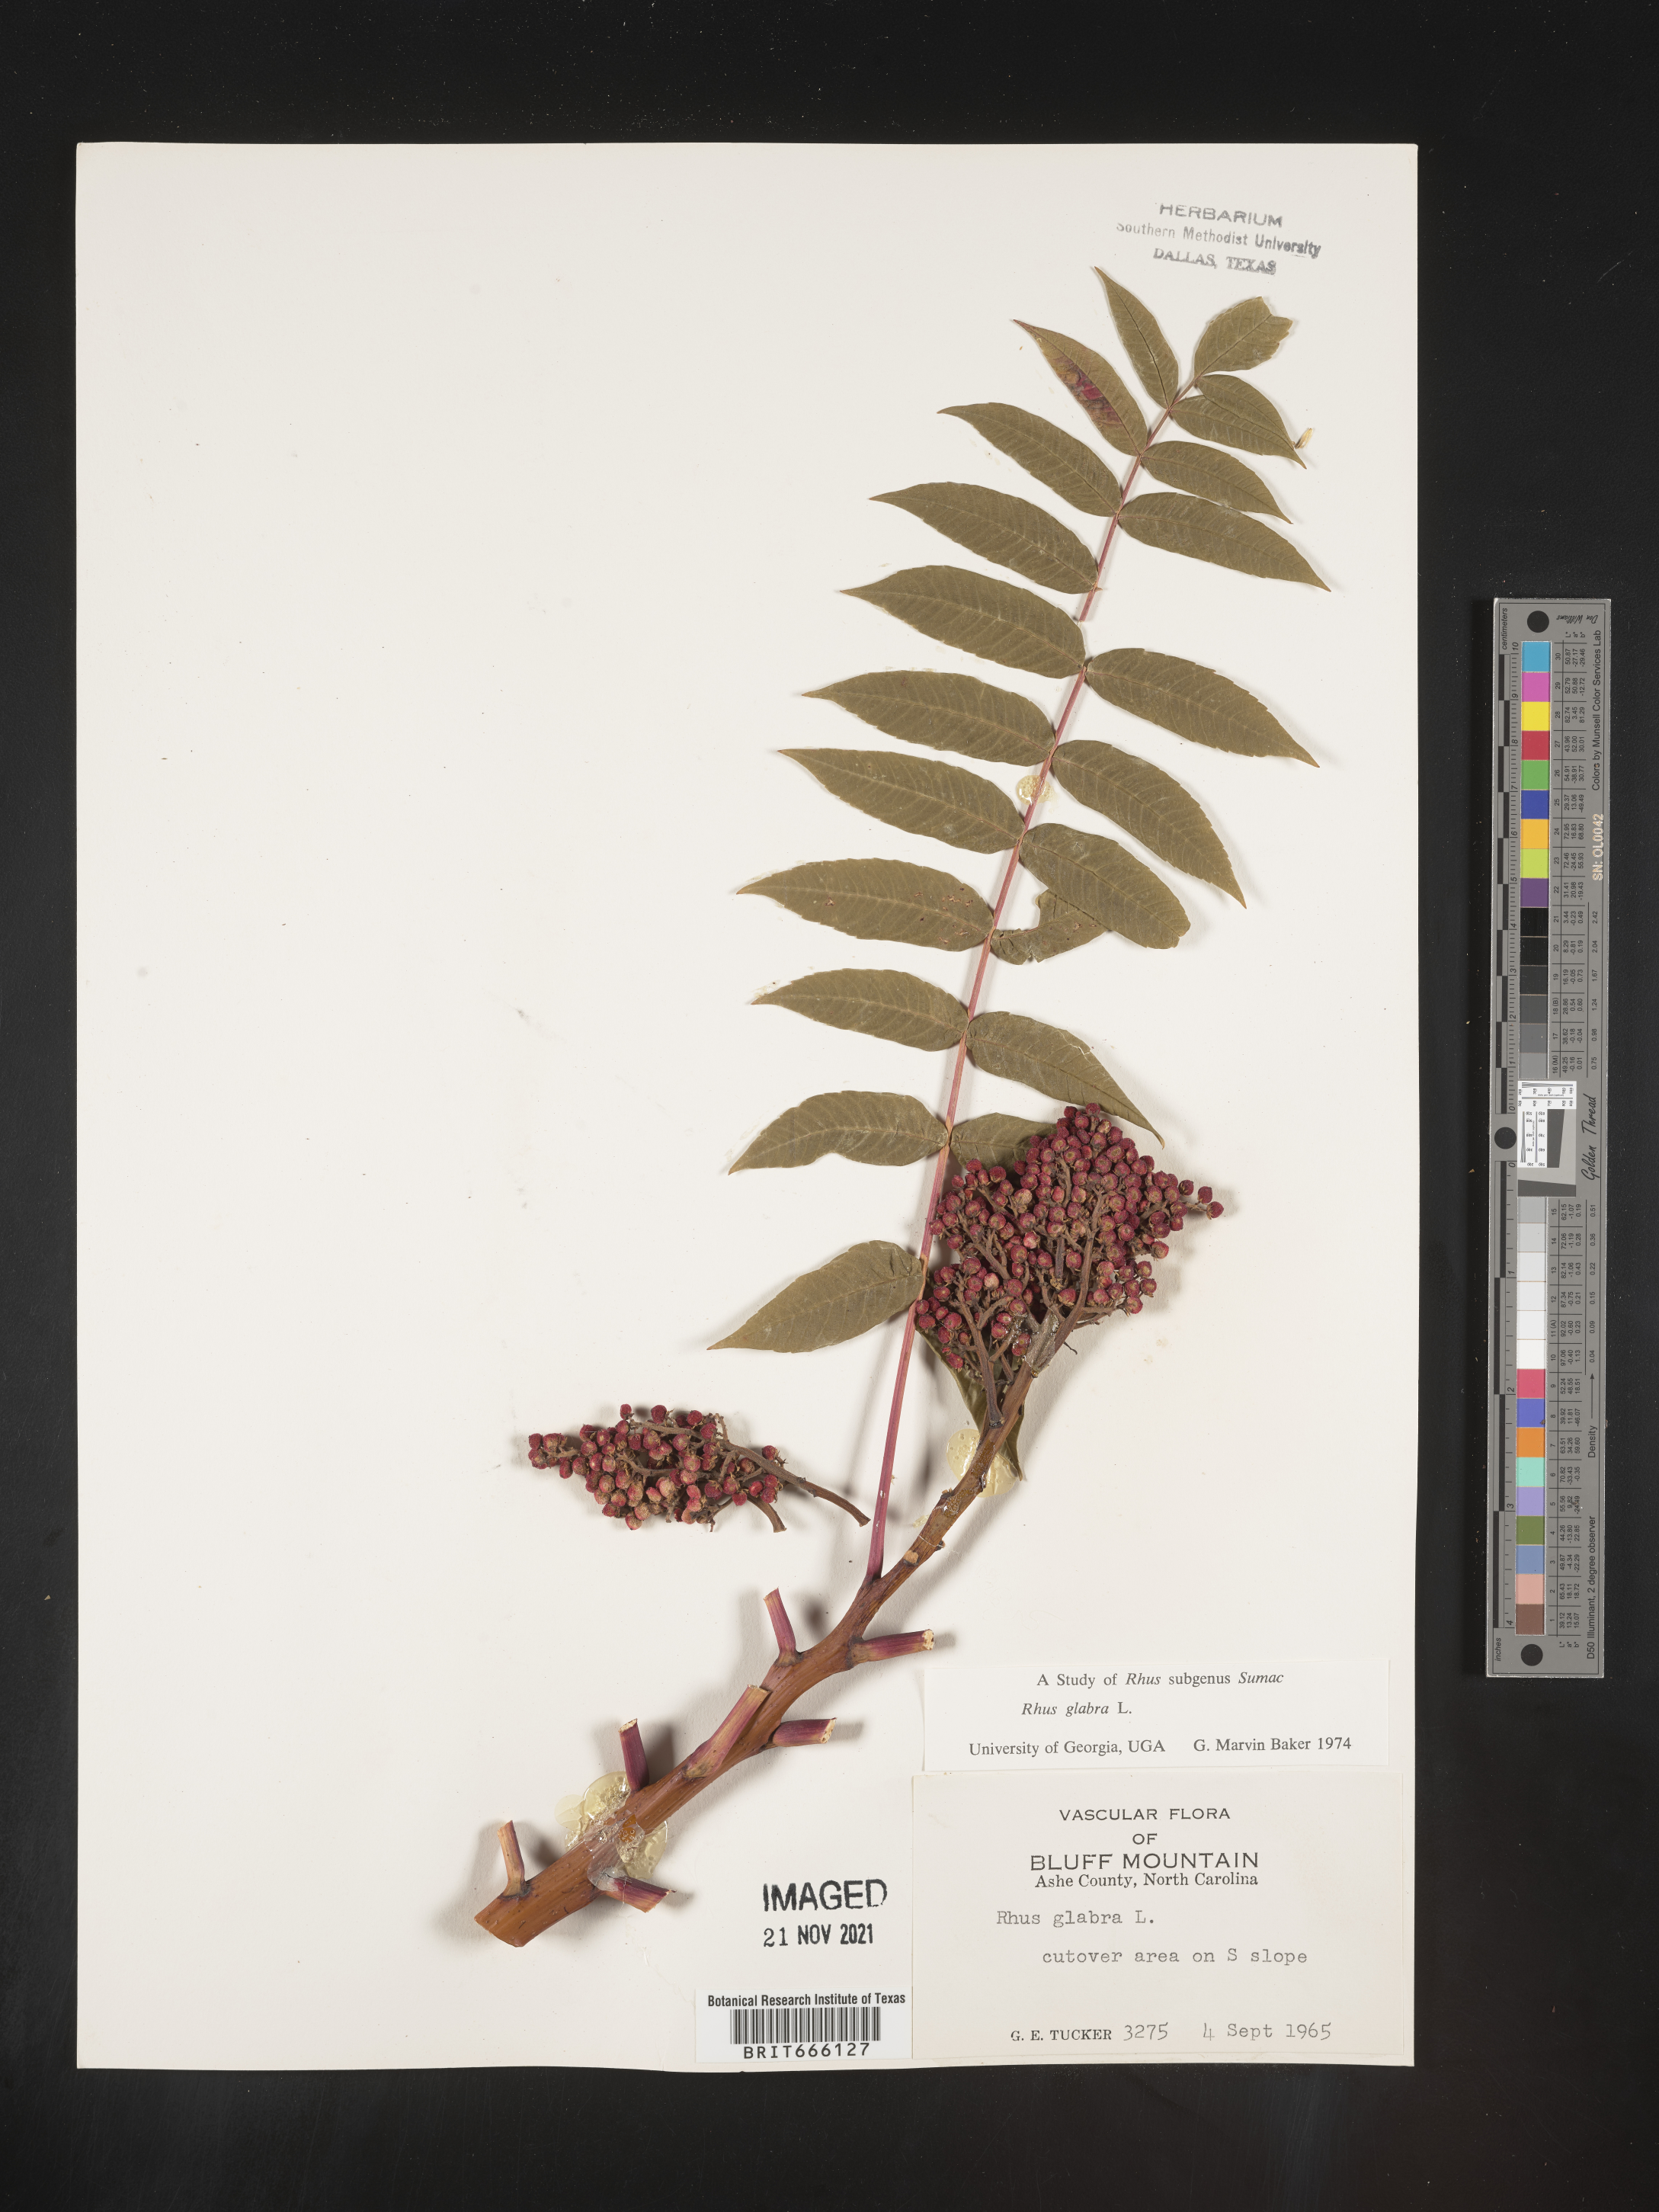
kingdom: Plantae
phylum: Tracheophyta
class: Magnoliopsida
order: Sapindales
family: Anacardiaceae
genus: Rhus
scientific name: Rhus glabra
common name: Scarlet sumac
